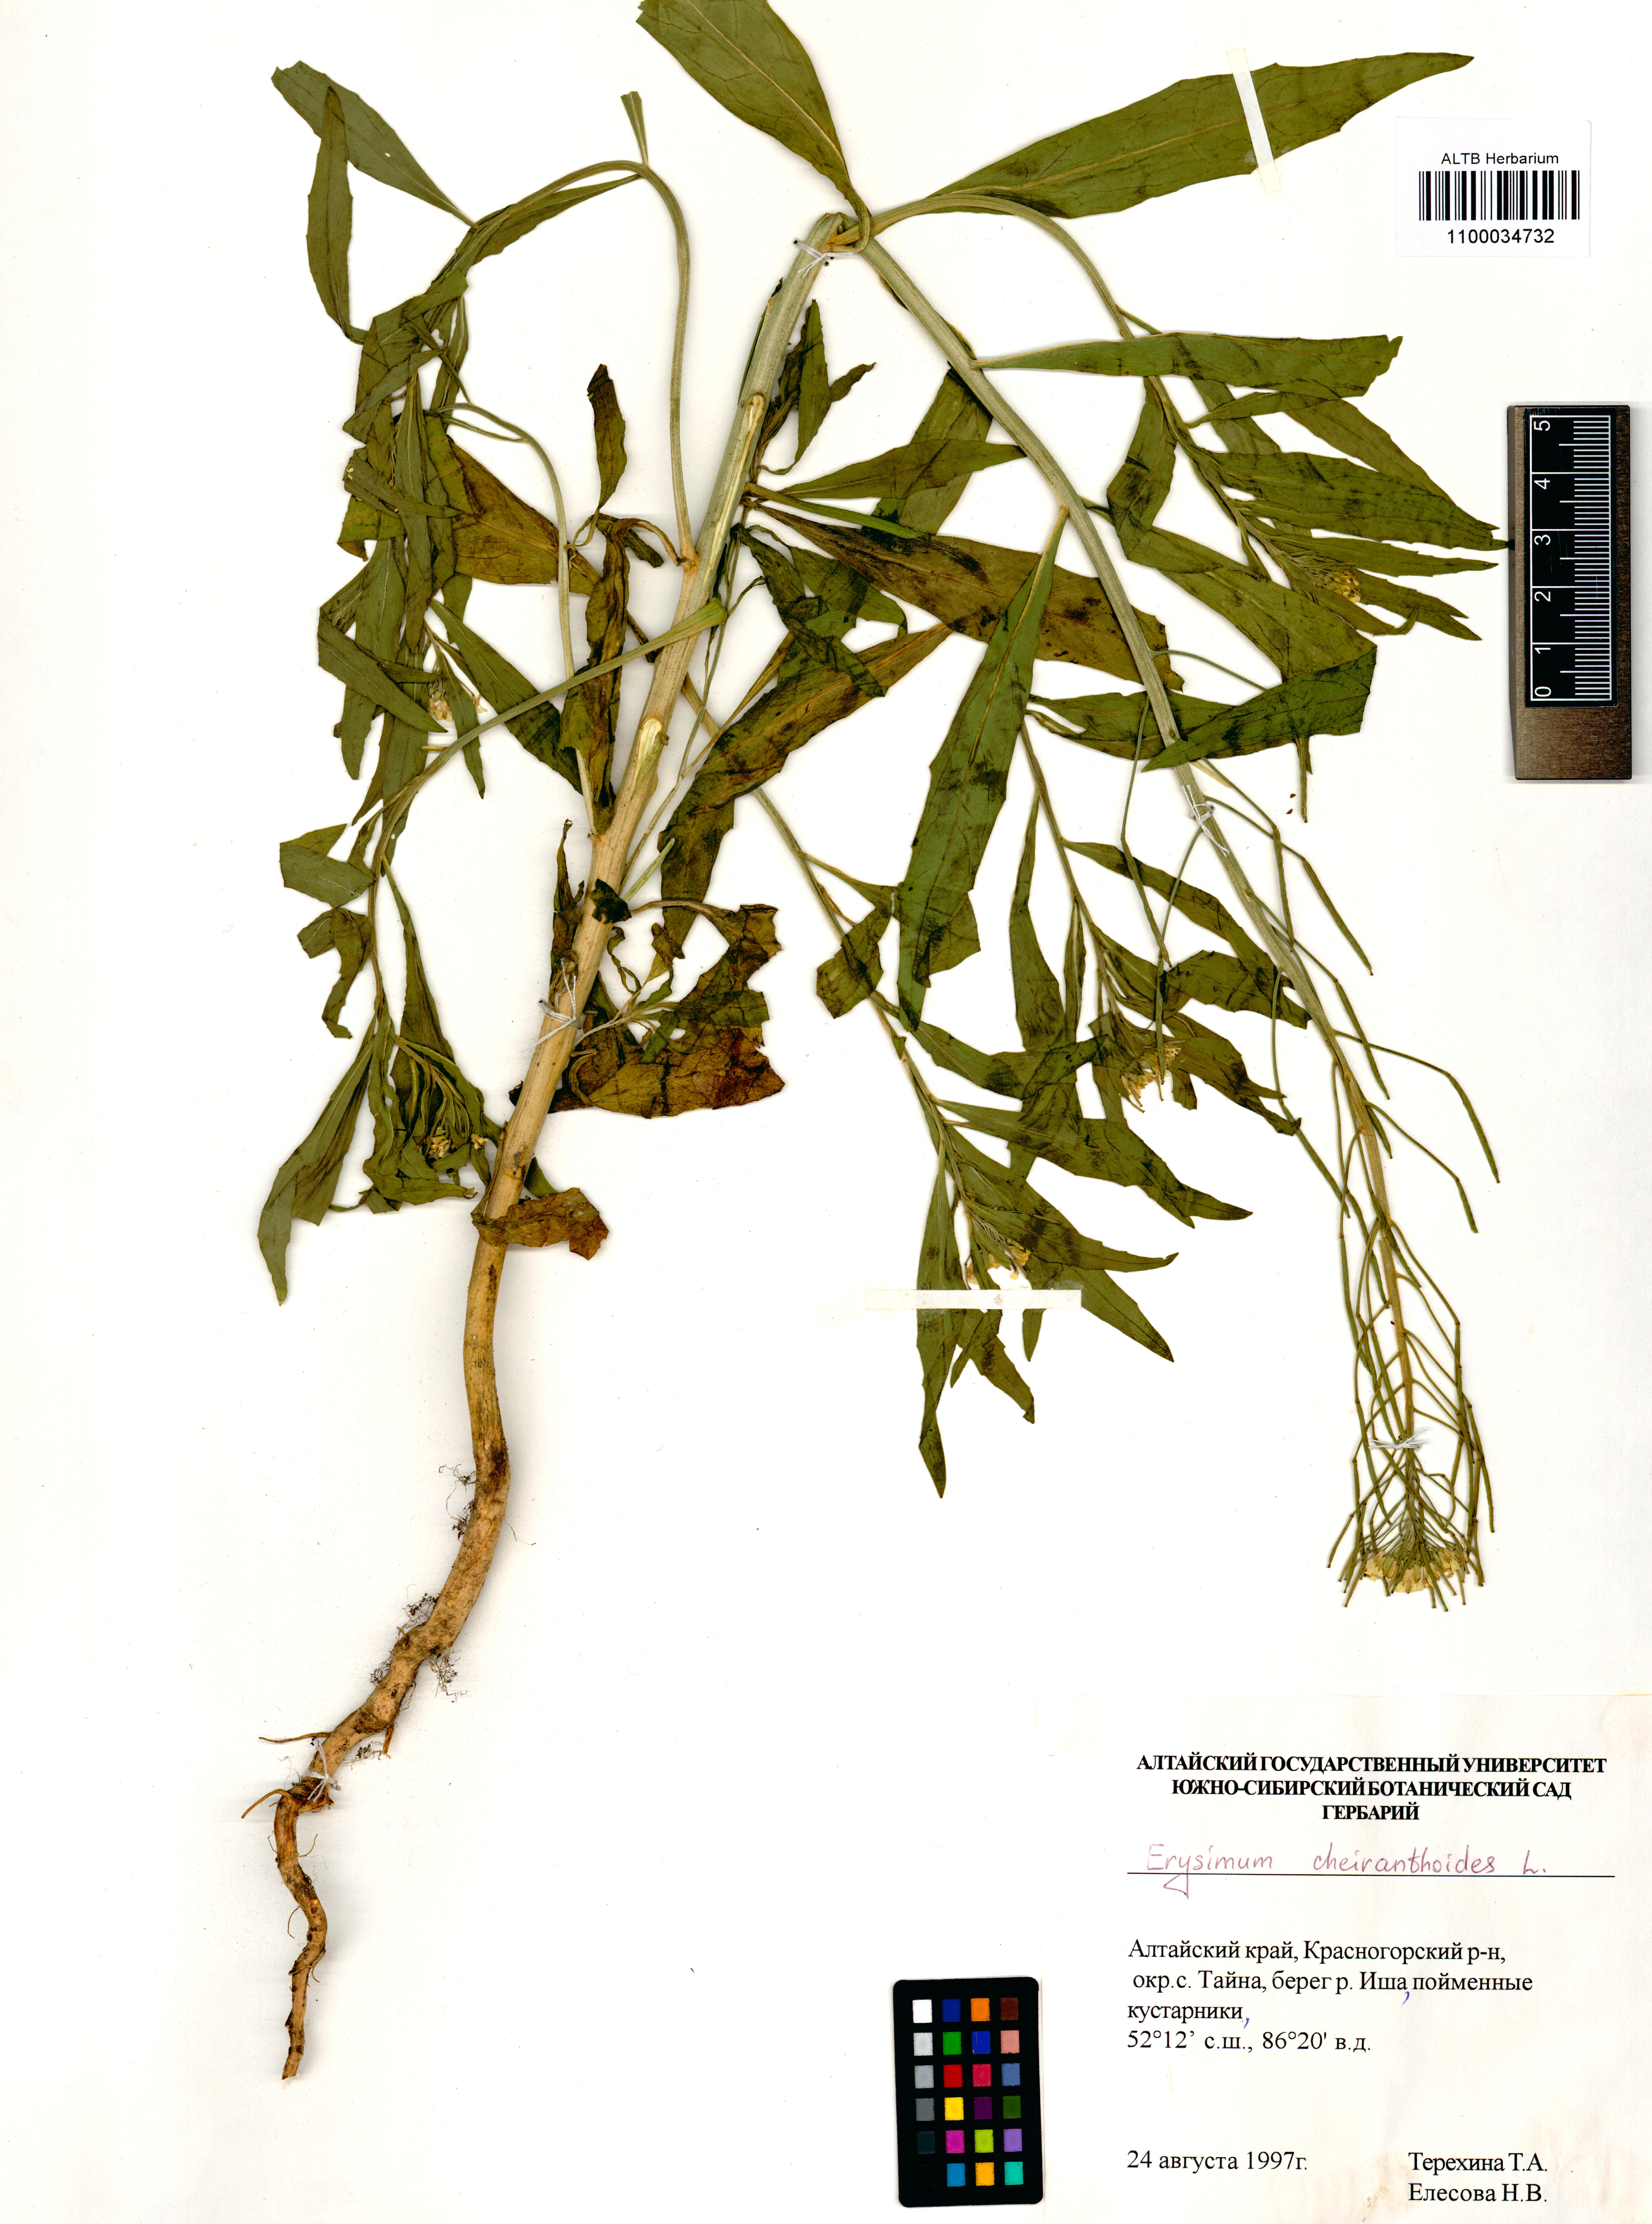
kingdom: Plantae
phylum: Tracheophyta
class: Magnoliopsida
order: Brassicales
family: Brassicaceae
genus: Erysimum
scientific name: Erysimum cheiranthoides
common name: Treacle mustard
